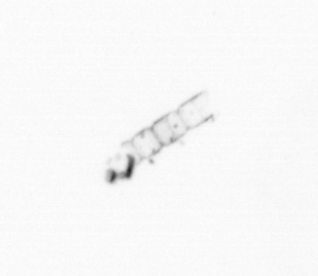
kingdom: Chromista
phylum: Ochrophyta
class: Bacillariophyceae
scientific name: Bacillariophyceae
